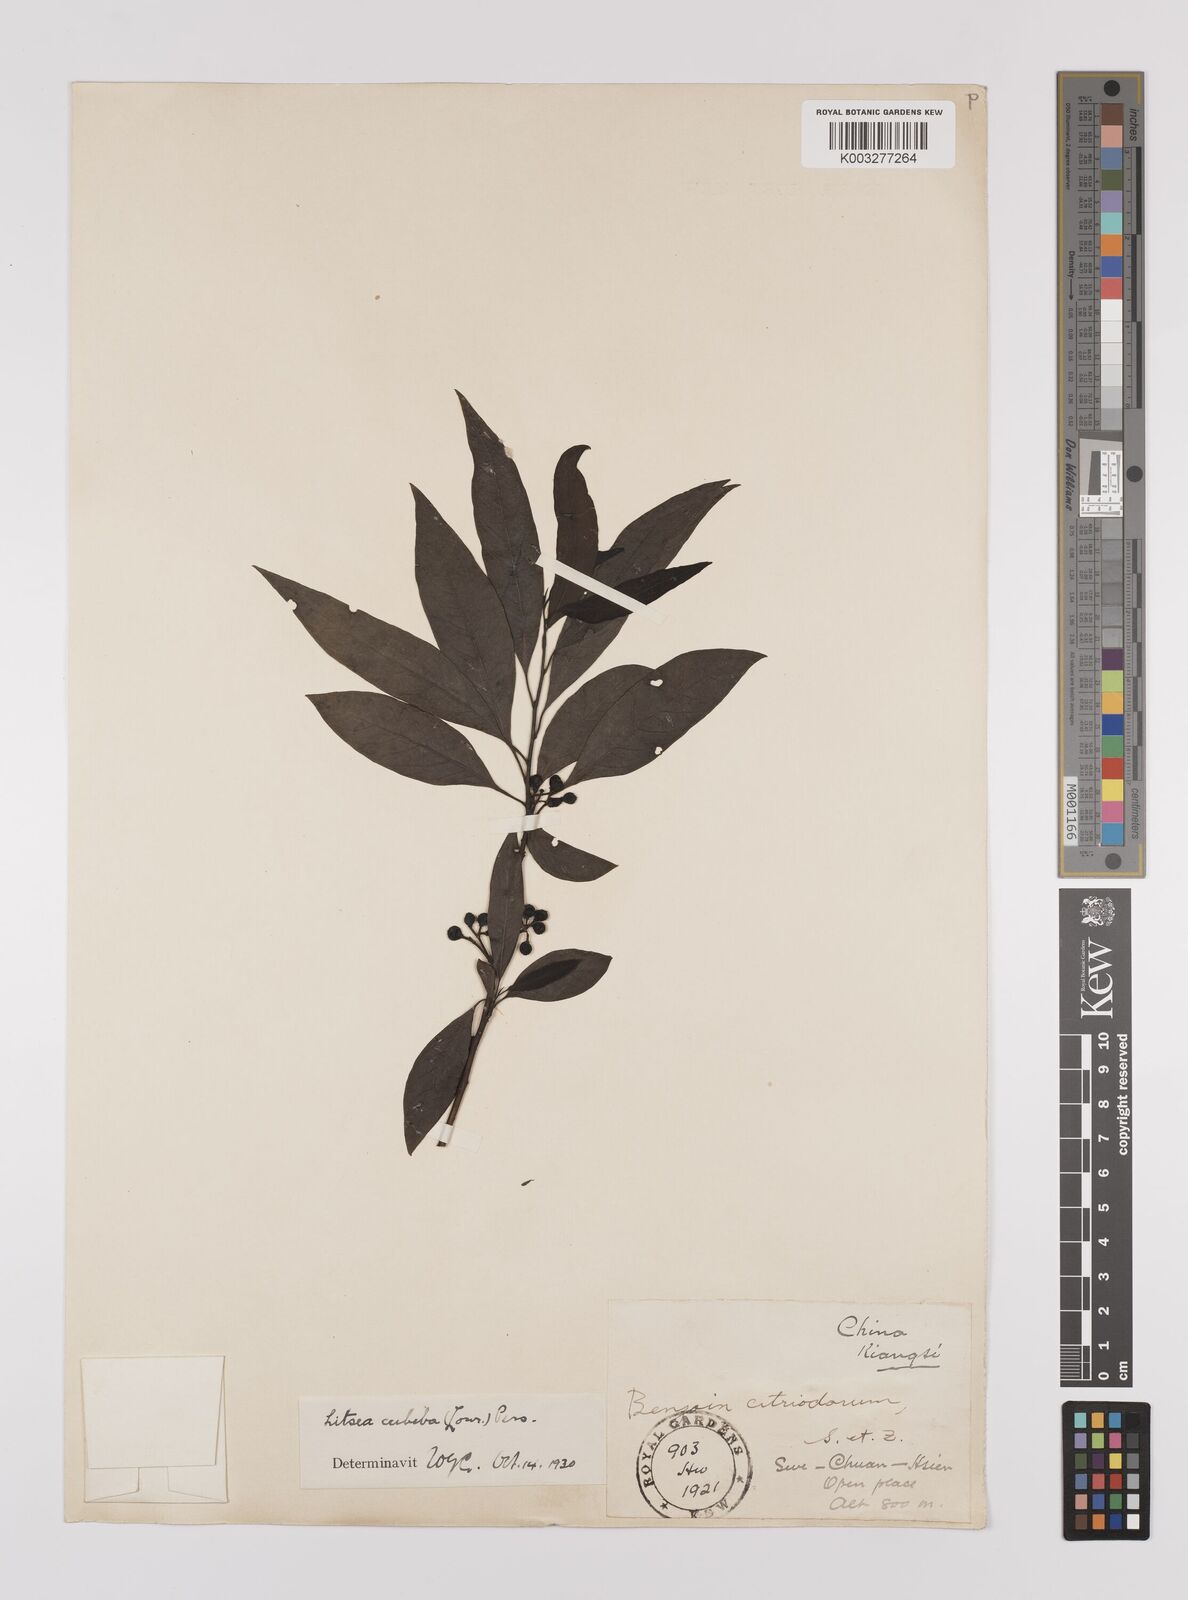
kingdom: Plantae
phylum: Tracheophyta
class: Magnoliopsida
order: Laurales
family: Lauraceae
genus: Litsea
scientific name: Litsea cubeba
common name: Mountain-pepper
